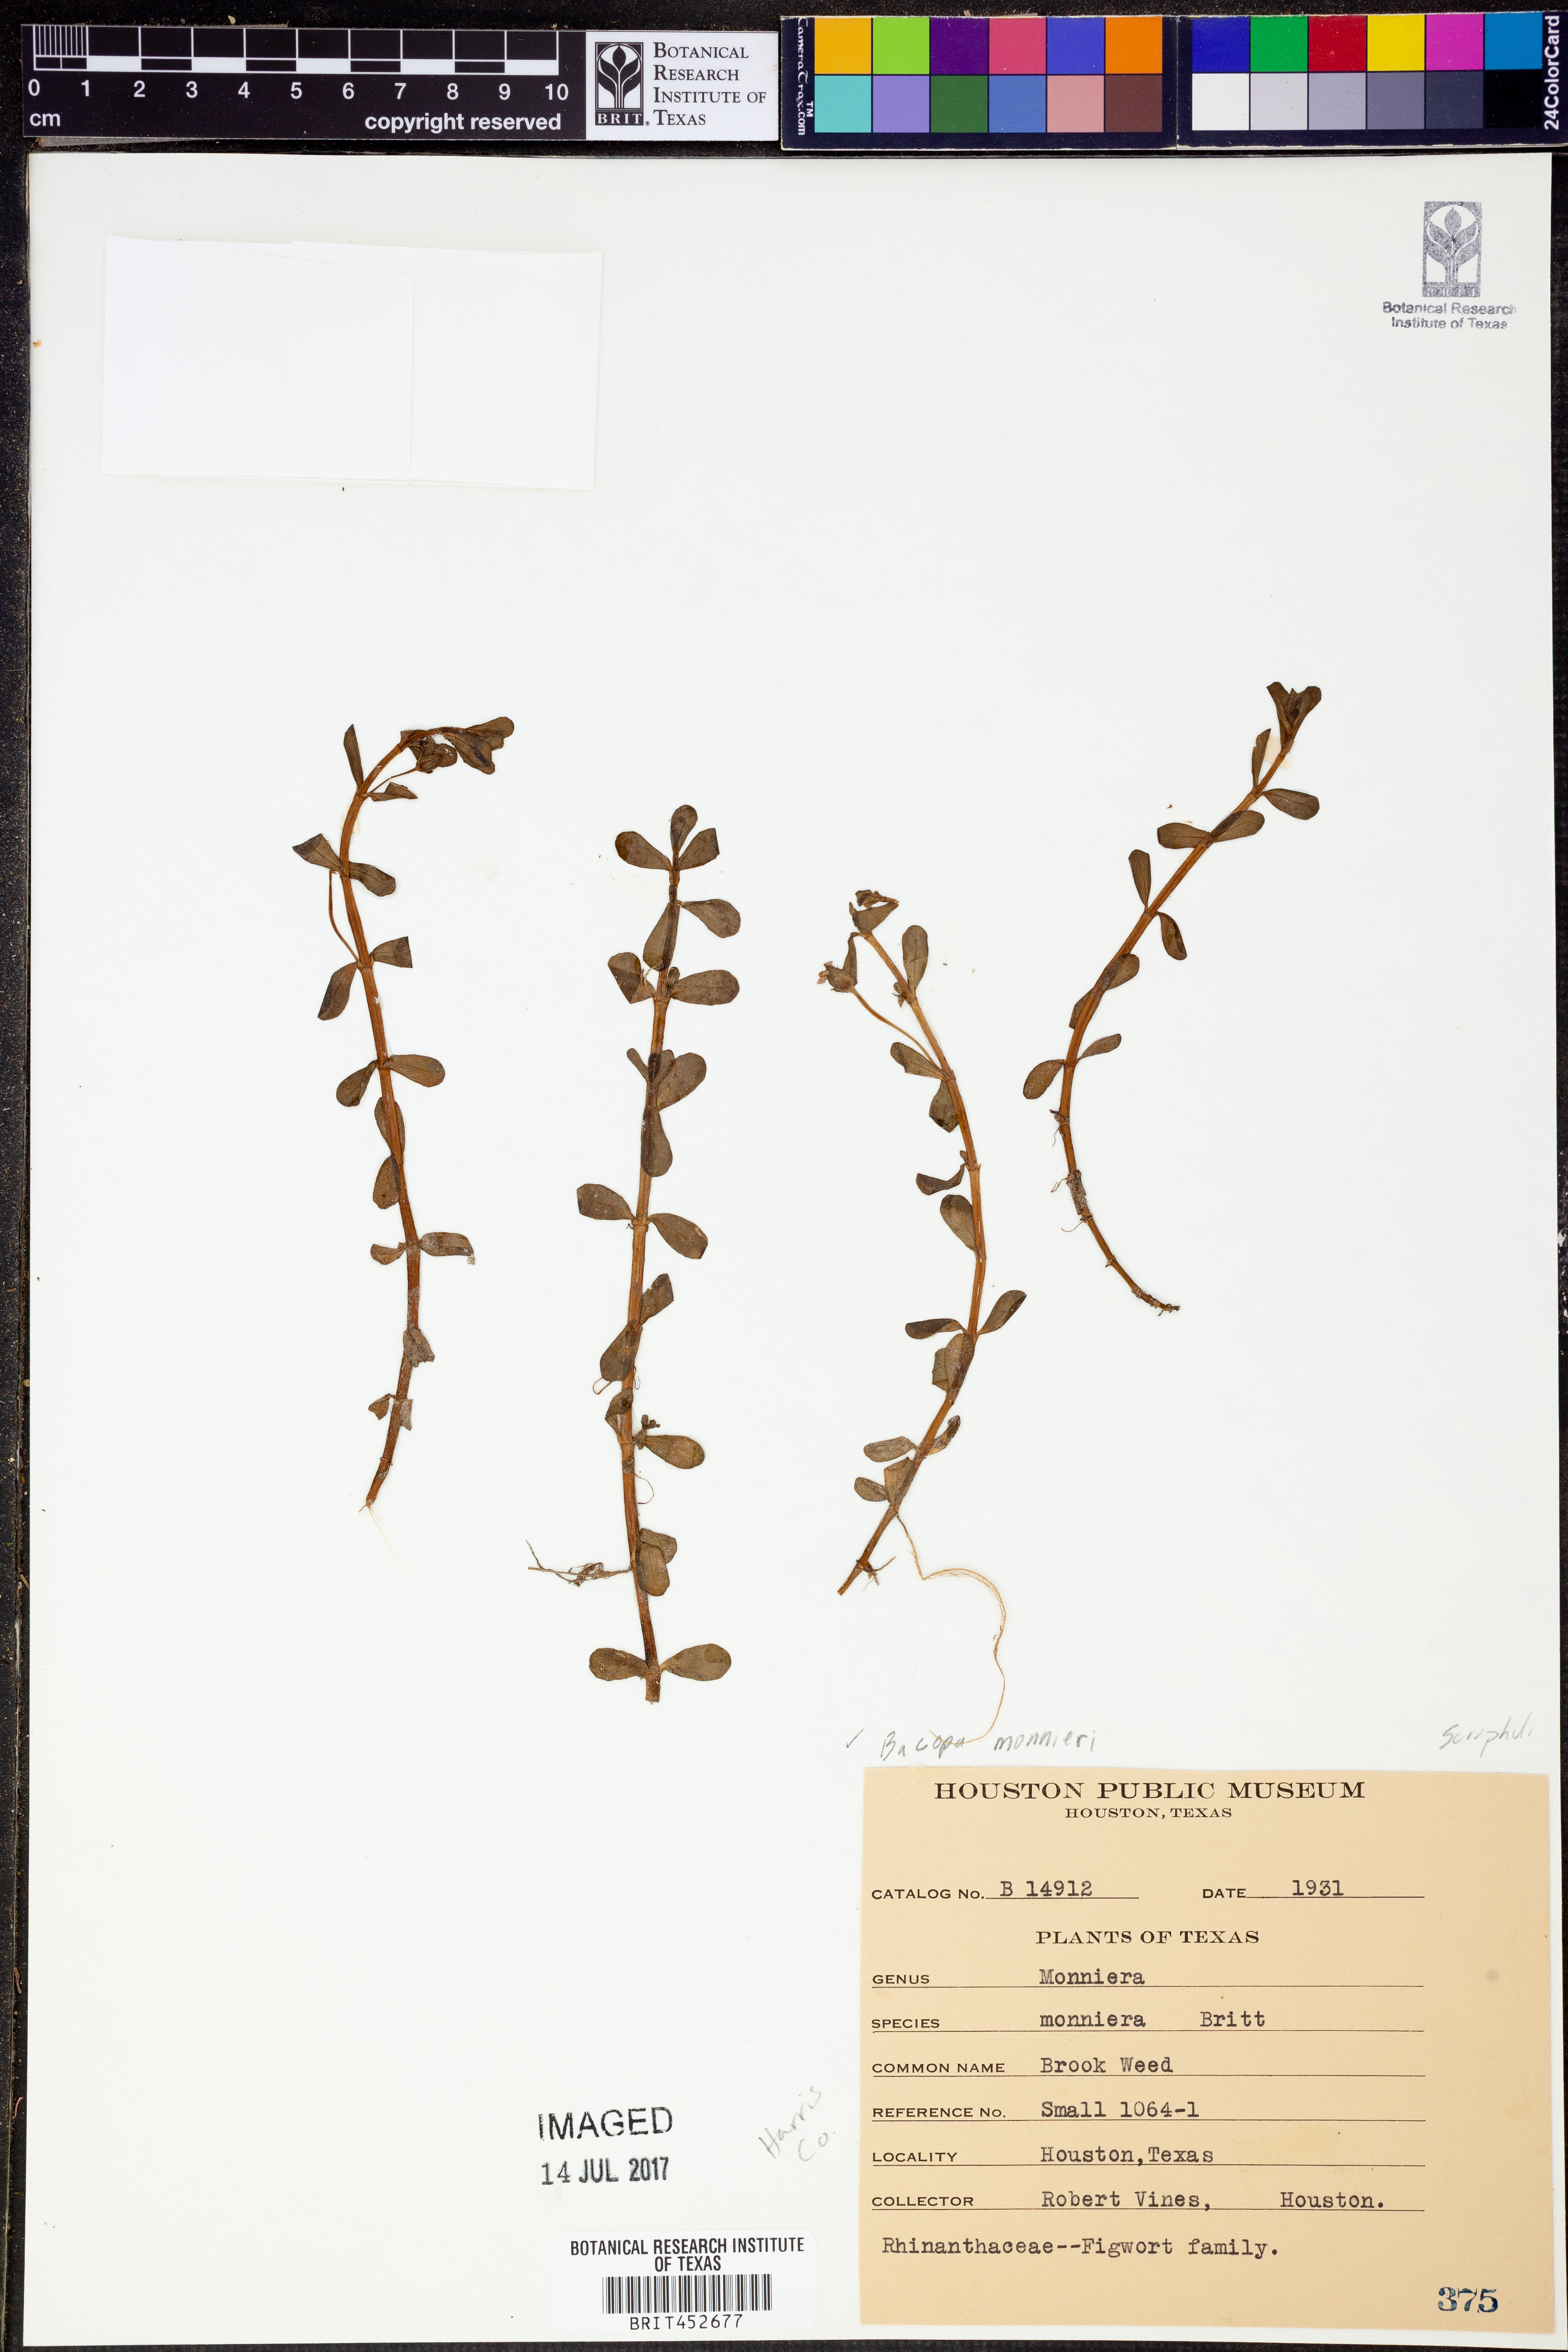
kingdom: Plantae
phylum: Tracheophyta
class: Magnoliopsida
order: Lamiales
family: Plantaginaceae
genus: Bacopa
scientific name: Bacopa monnieri
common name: Indian-pennywort
